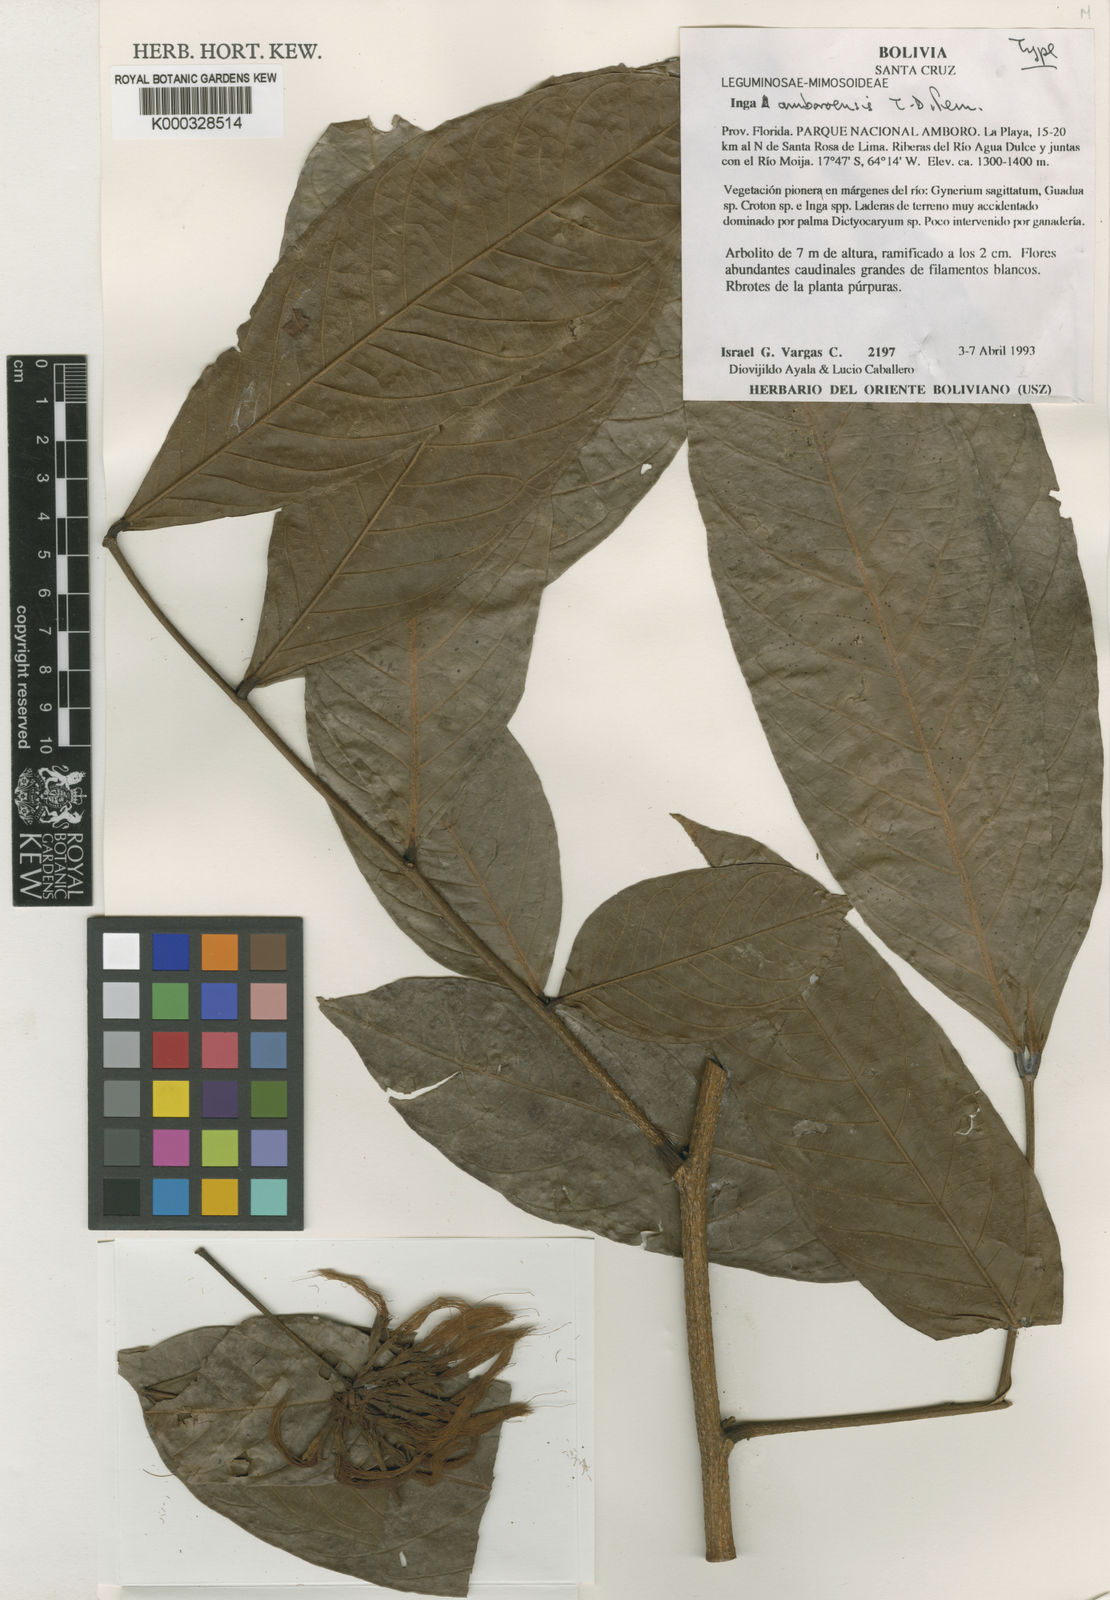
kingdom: Plantae
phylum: Tracheophyta
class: Magnoliopsida
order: Fabales
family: Fabaceae
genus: Inga
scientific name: Inga amboroensis
